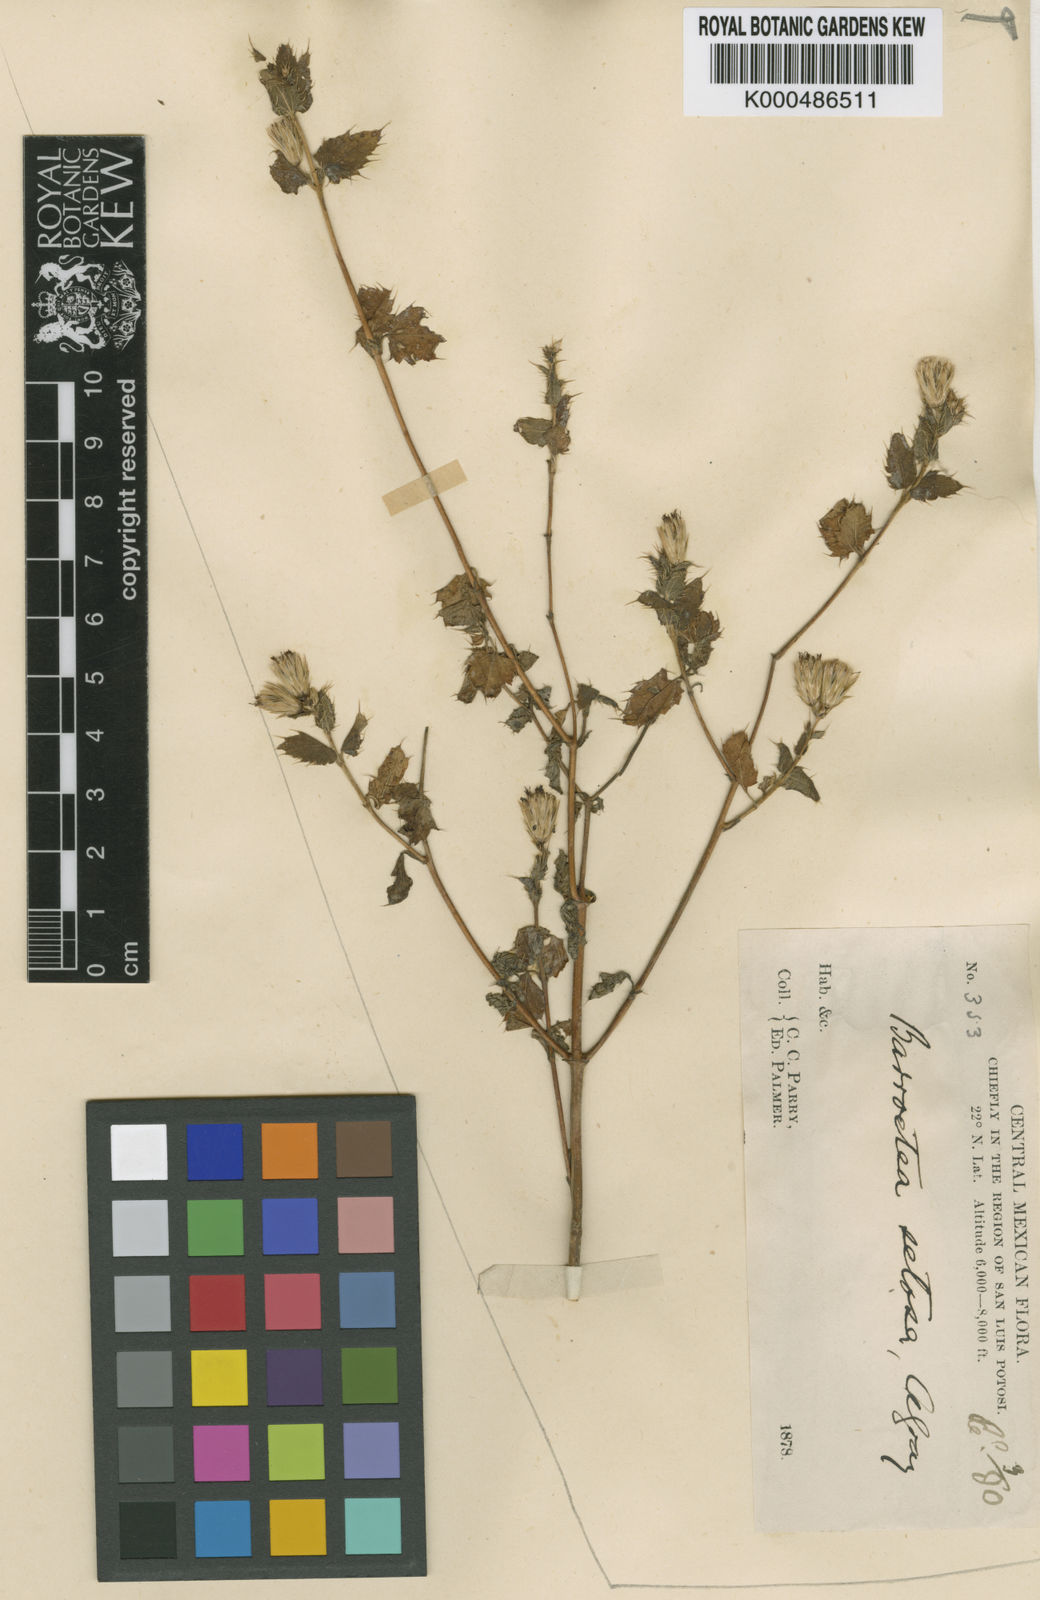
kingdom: Plantae
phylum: Tracheophyta
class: Magnoliopsida
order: Asterales
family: Asteraceae
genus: Brickellia
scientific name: Brickellia subuligera
